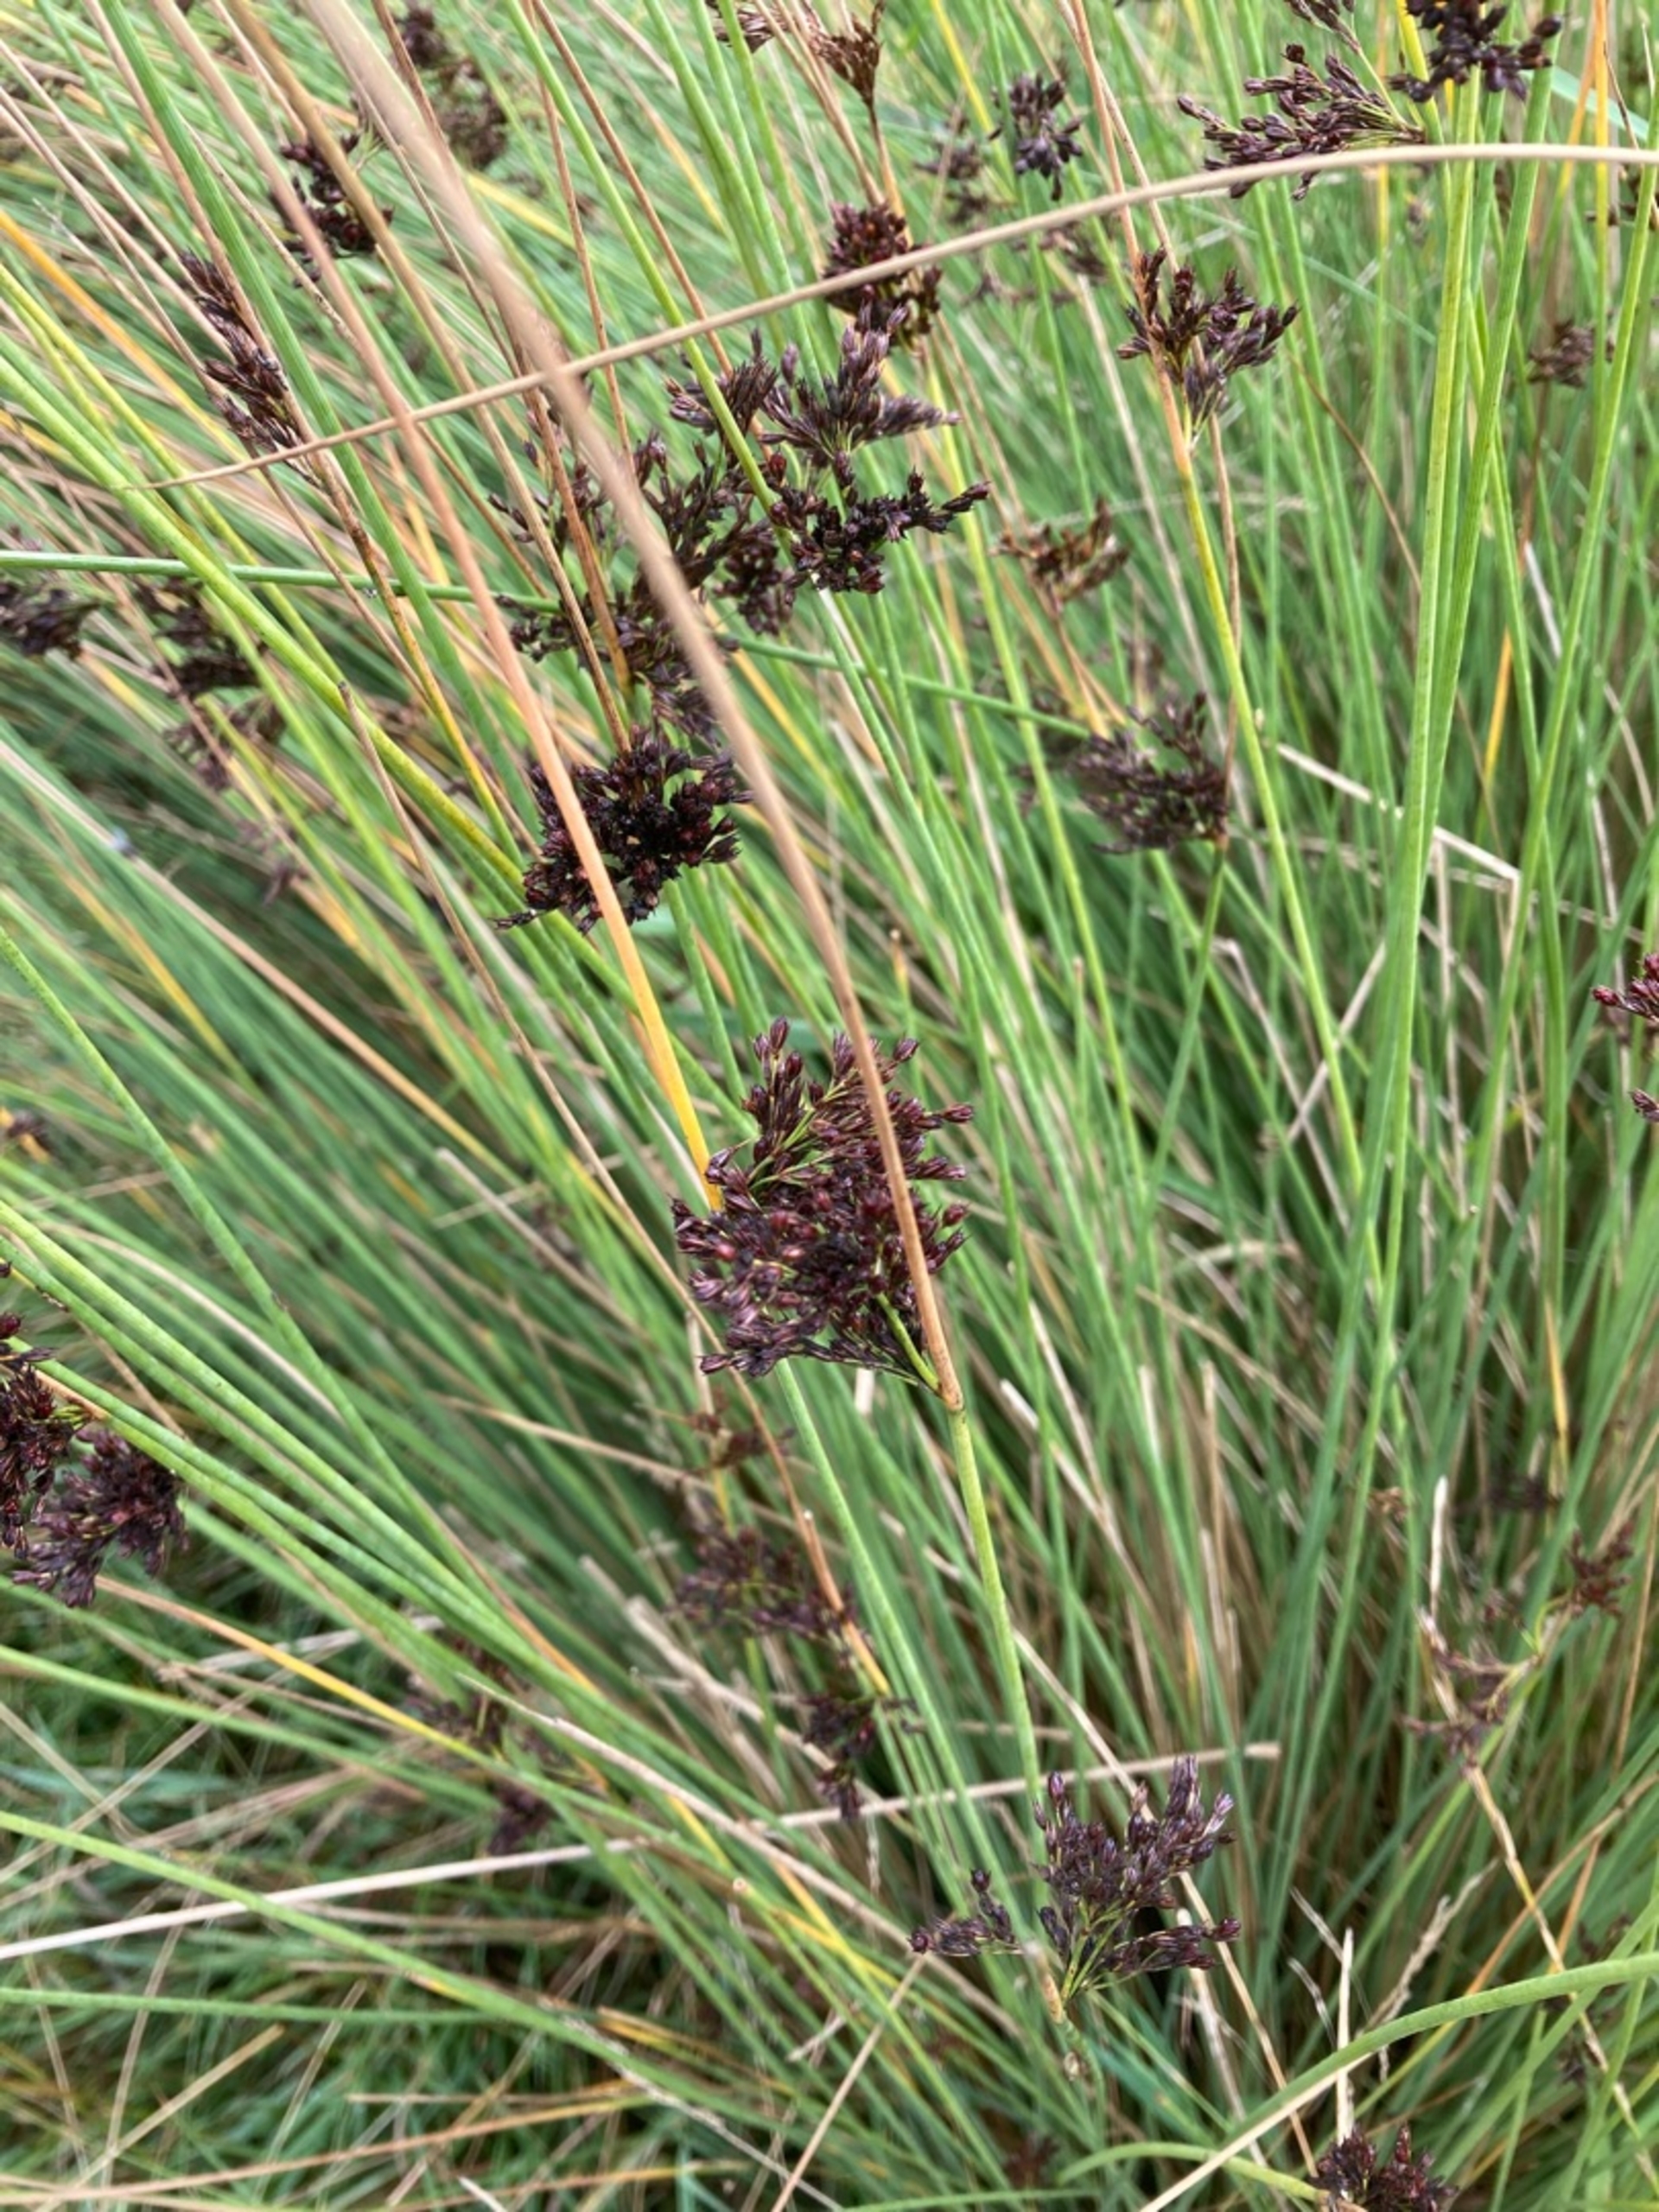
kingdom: Plantae
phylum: Tracheophyta
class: Liliopsida
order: Poales
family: Juncaceae
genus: Juncus
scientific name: Juncus inflexus
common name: Blågrå siv
